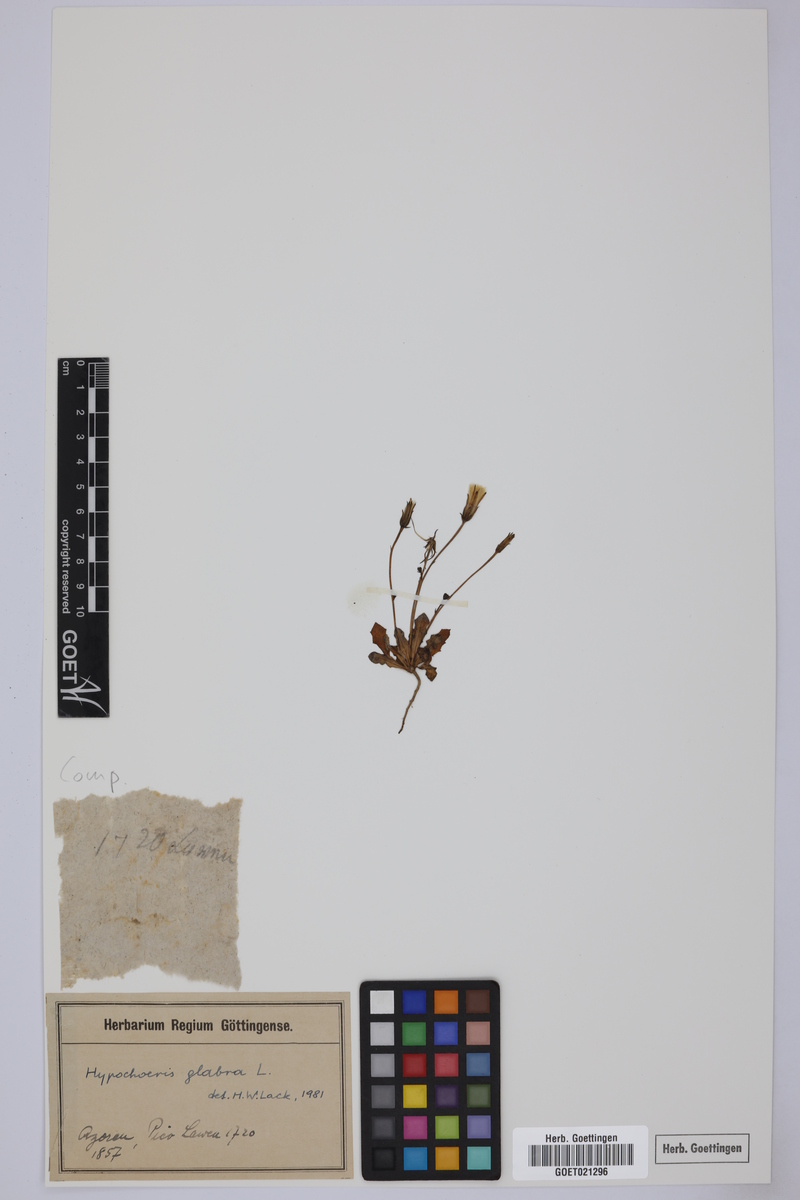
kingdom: Plantae
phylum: Tracheophyta
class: Magnoliopsida
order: Asterales
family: Asteraceae
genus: Hypochaeris
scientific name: Hypochaeris glabra
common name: Smooth catsear
